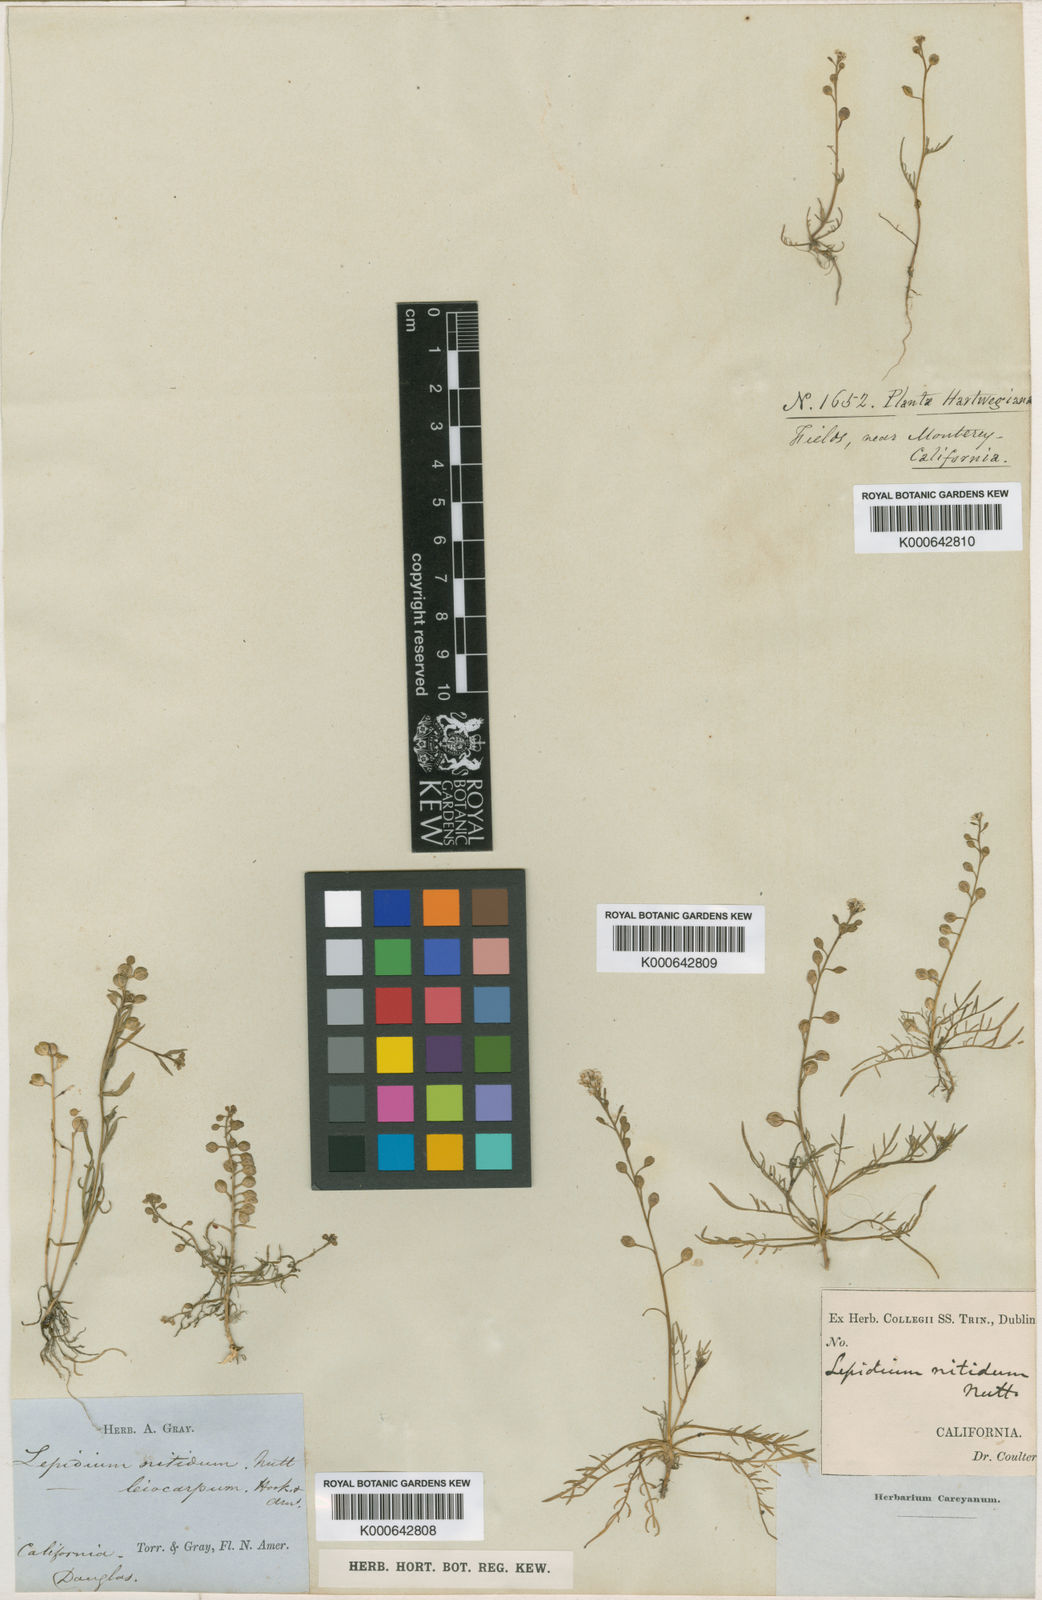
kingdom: Plantae
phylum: Tracheophyta
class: Magnoliopsida
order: Brassicales
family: Brassicaceae
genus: Lepidium
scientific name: Lepidium nitidum
